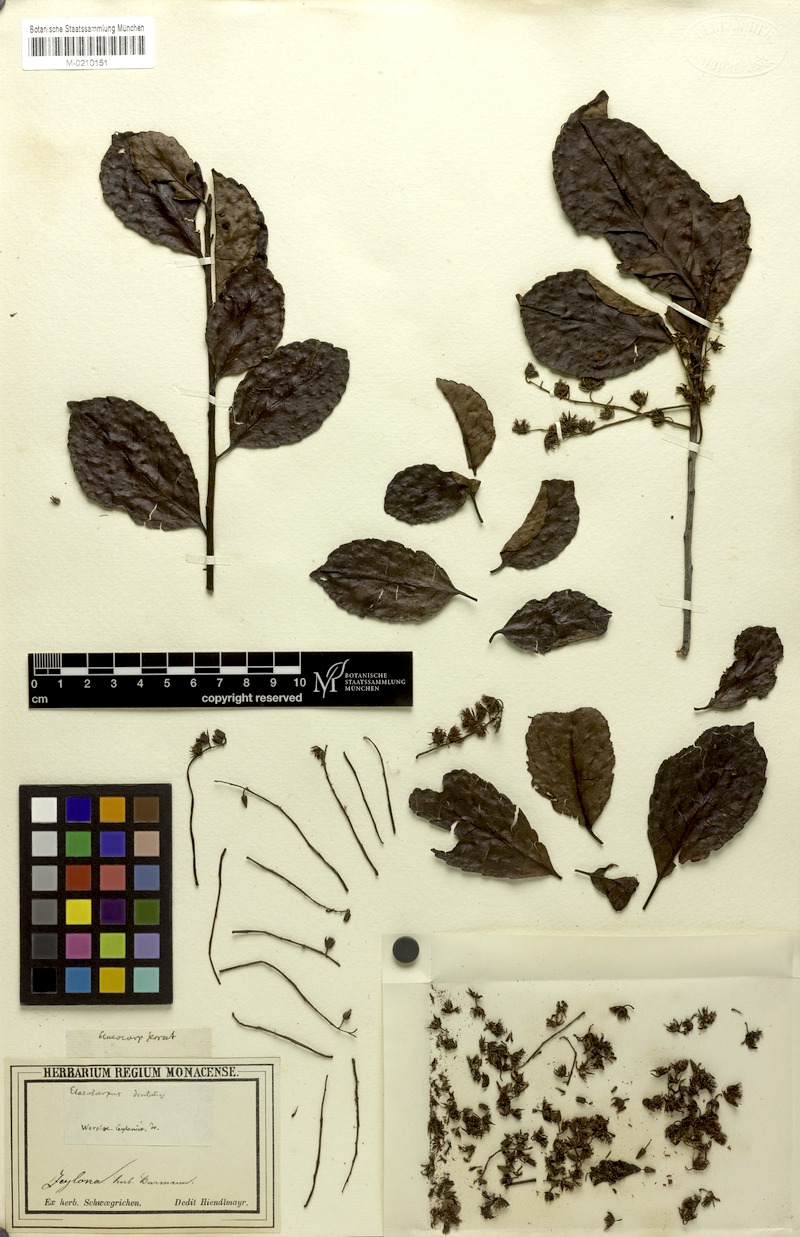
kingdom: Plantae
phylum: Tracheophyta
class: Magnoliopsida
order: Oxalidales
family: Elaeocarpaceae
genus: Elaeocarpus
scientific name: Elaeocarpus dentatus
